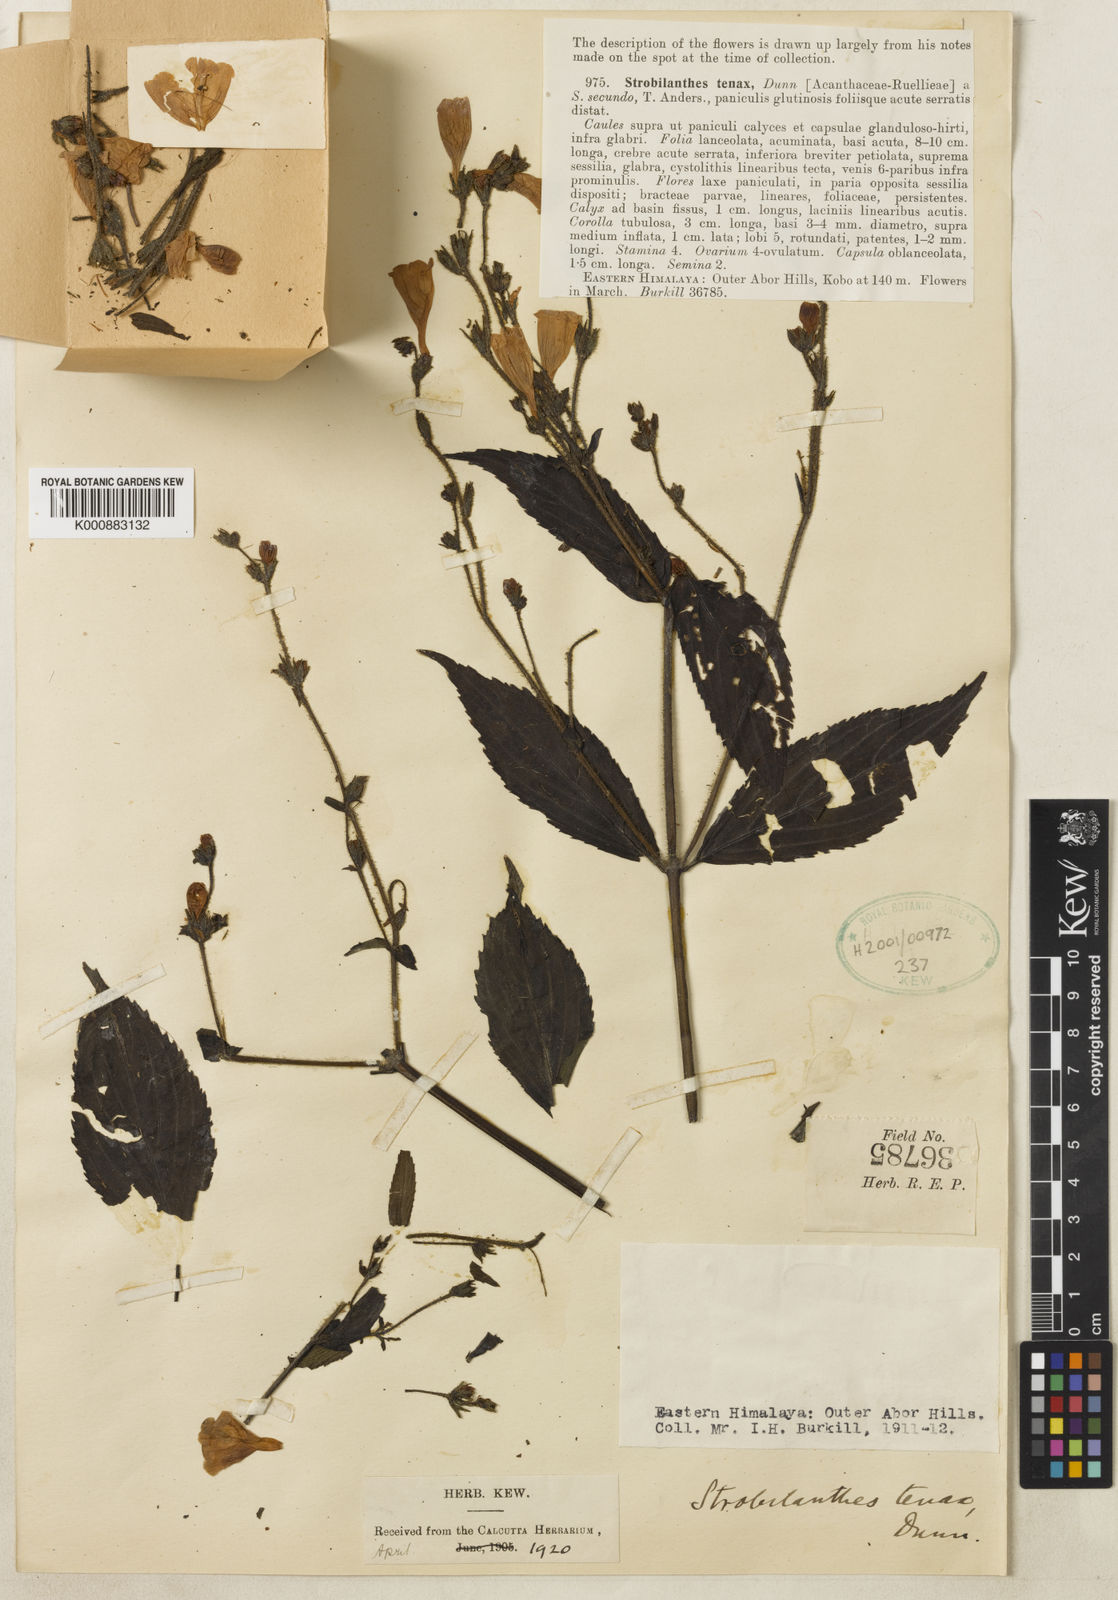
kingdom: Plantae
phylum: Tracheophyta
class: Magnoliopsida
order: Lamiales
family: Acanthaceae
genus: Strobilanthes
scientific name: Strobilanthes tenax
